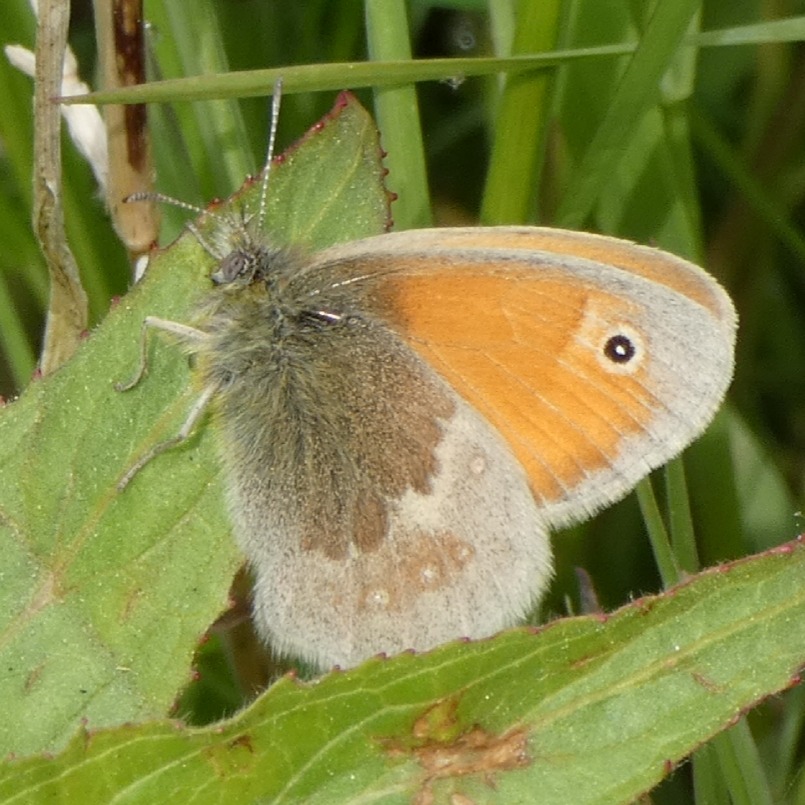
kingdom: Animalia
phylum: Arthropoda
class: Insecta
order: Lepidoptera
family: Nymphalidae
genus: Coenonympha
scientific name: Coenonympha pamphilus
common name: Okkergul randøje
